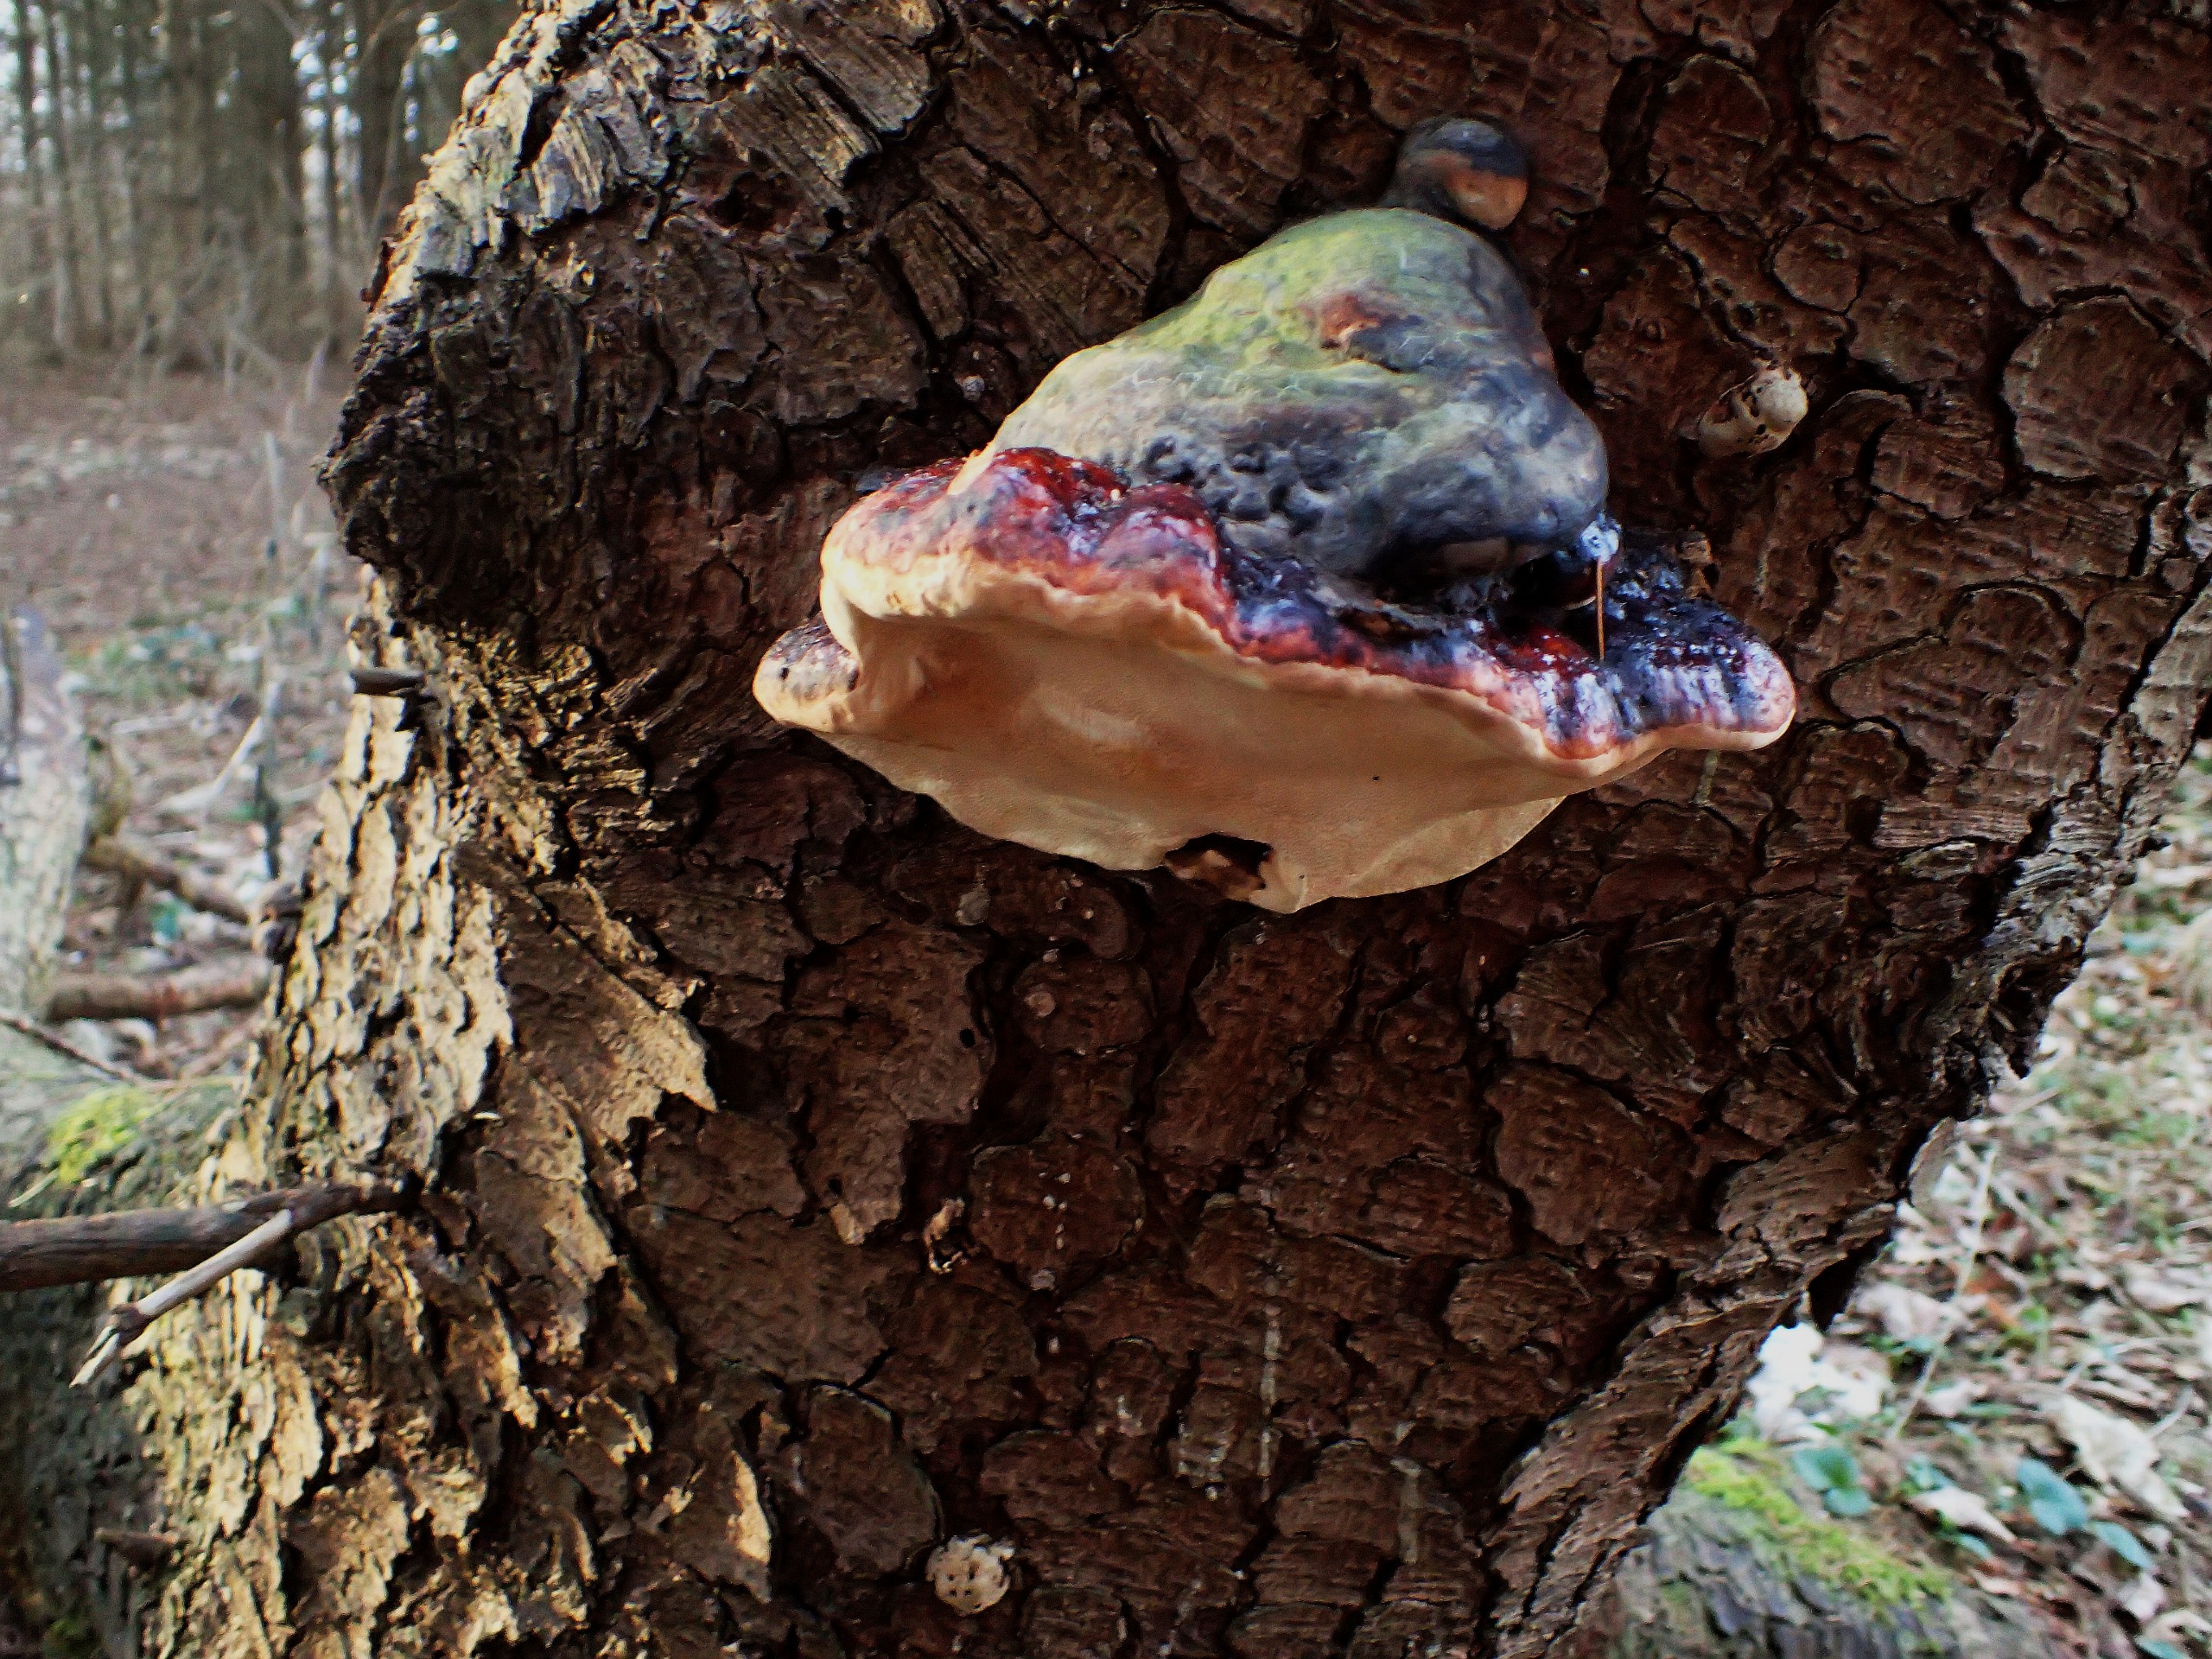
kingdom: Fungi
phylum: Basidiomycota
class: Agaricomycetes
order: Polyporales
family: Fomitopsidaceae
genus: Fomitopsis
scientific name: Fomitopsis pinicola
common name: Randbæltet hovporesvamp
